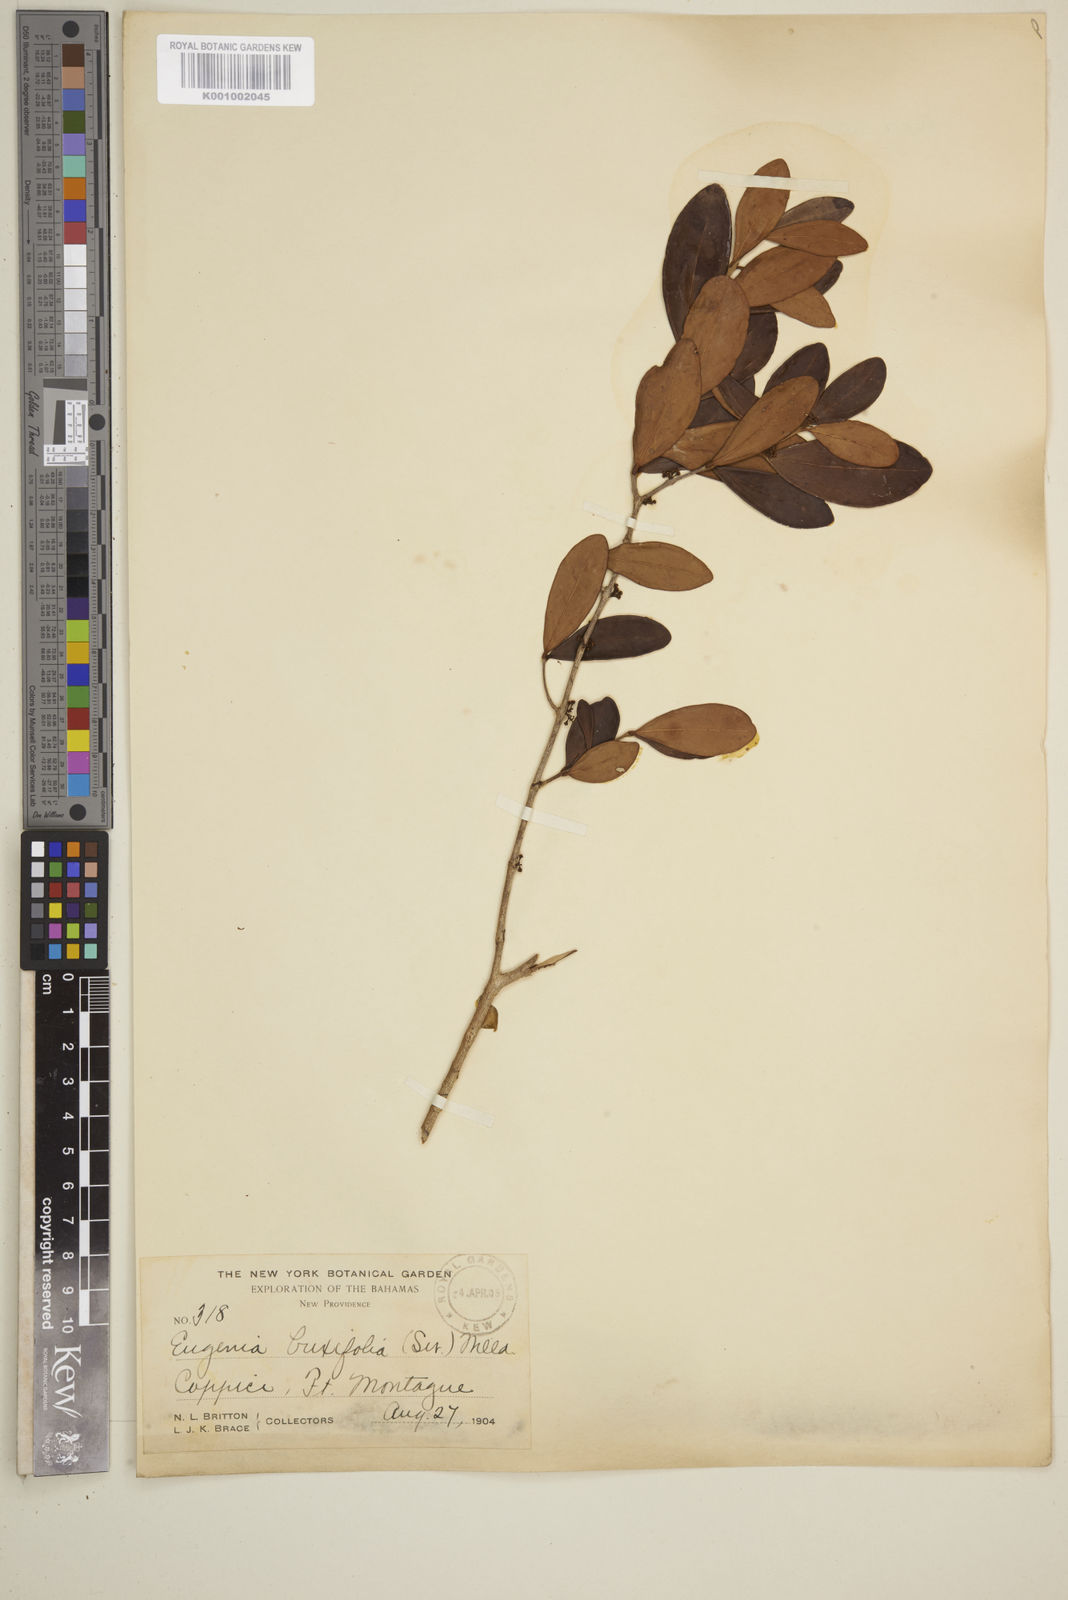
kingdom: Plantae
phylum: Tracheophyta
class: Magnoliopsida
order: Myrtales
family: Myrtaceae
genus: Eugenia
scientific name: Eugenia buxifolia
